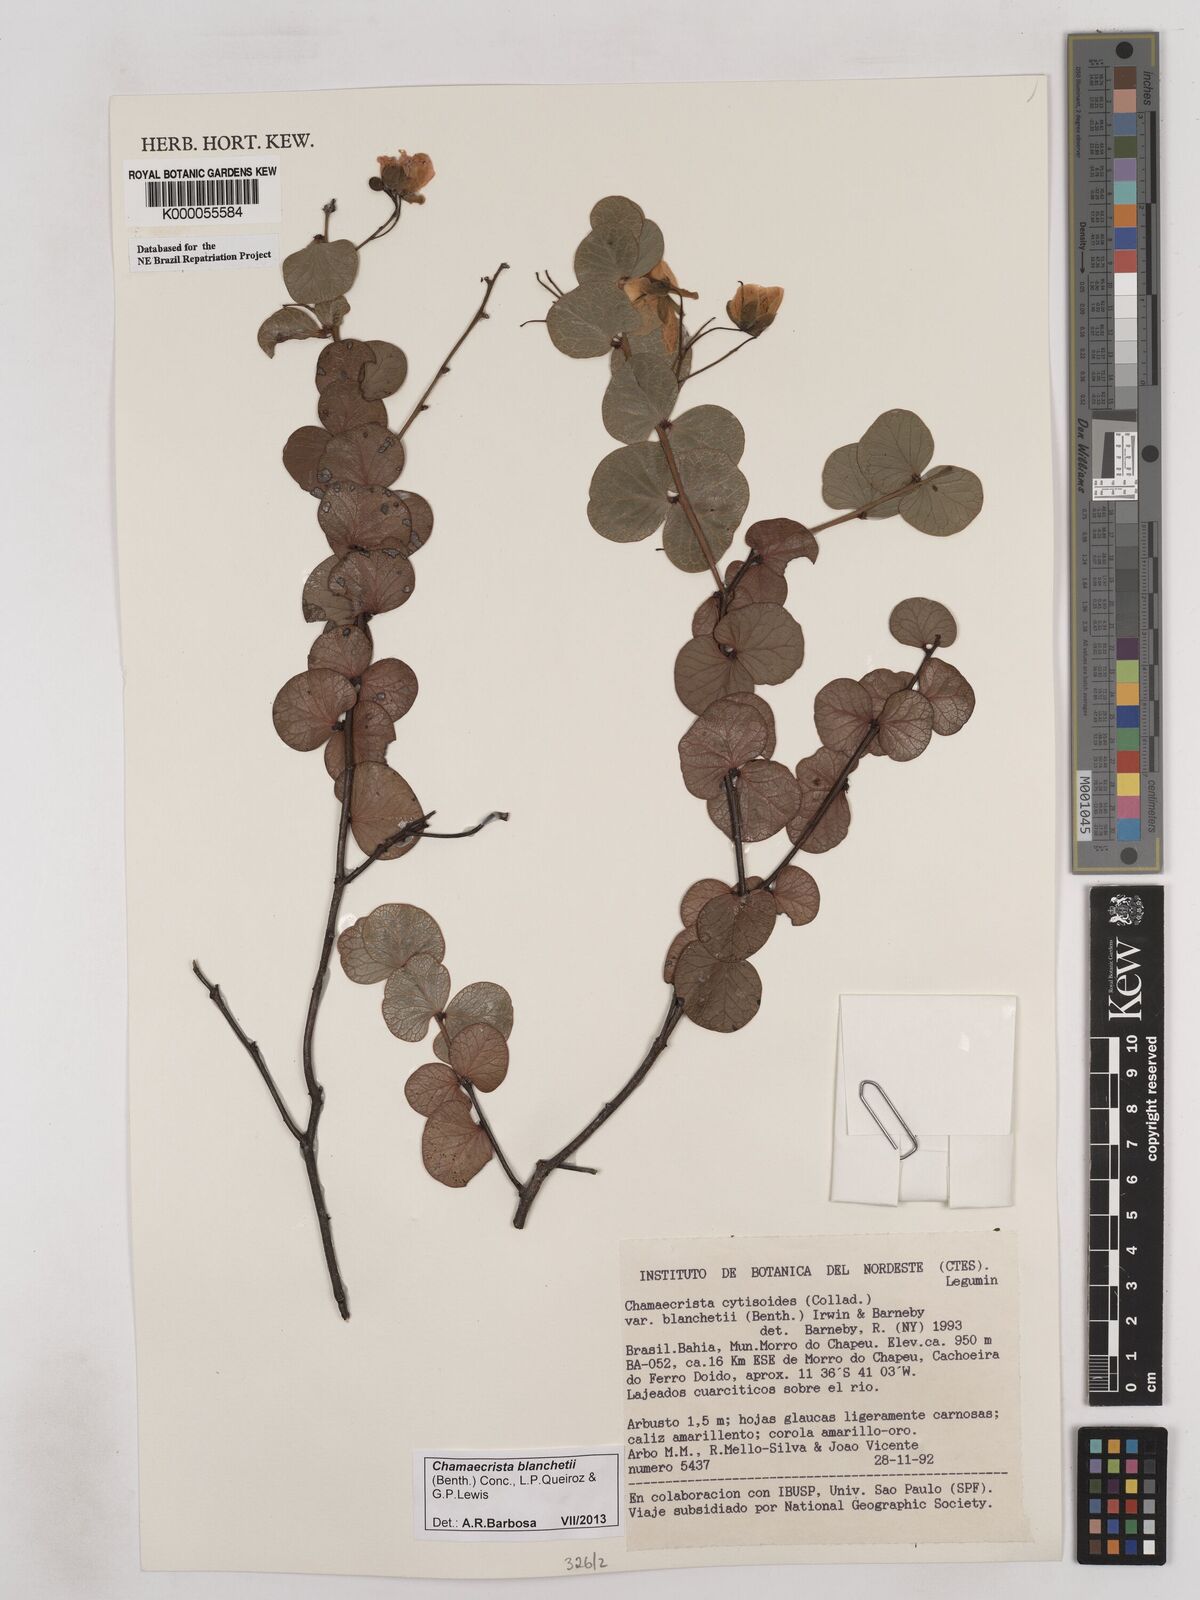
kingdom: Plantae
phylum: Tracheophyta
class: Magnoliopsida
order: Fabales
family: Fabaceae
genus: Chamaecrista
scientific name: Chamaecrista cytisoides
